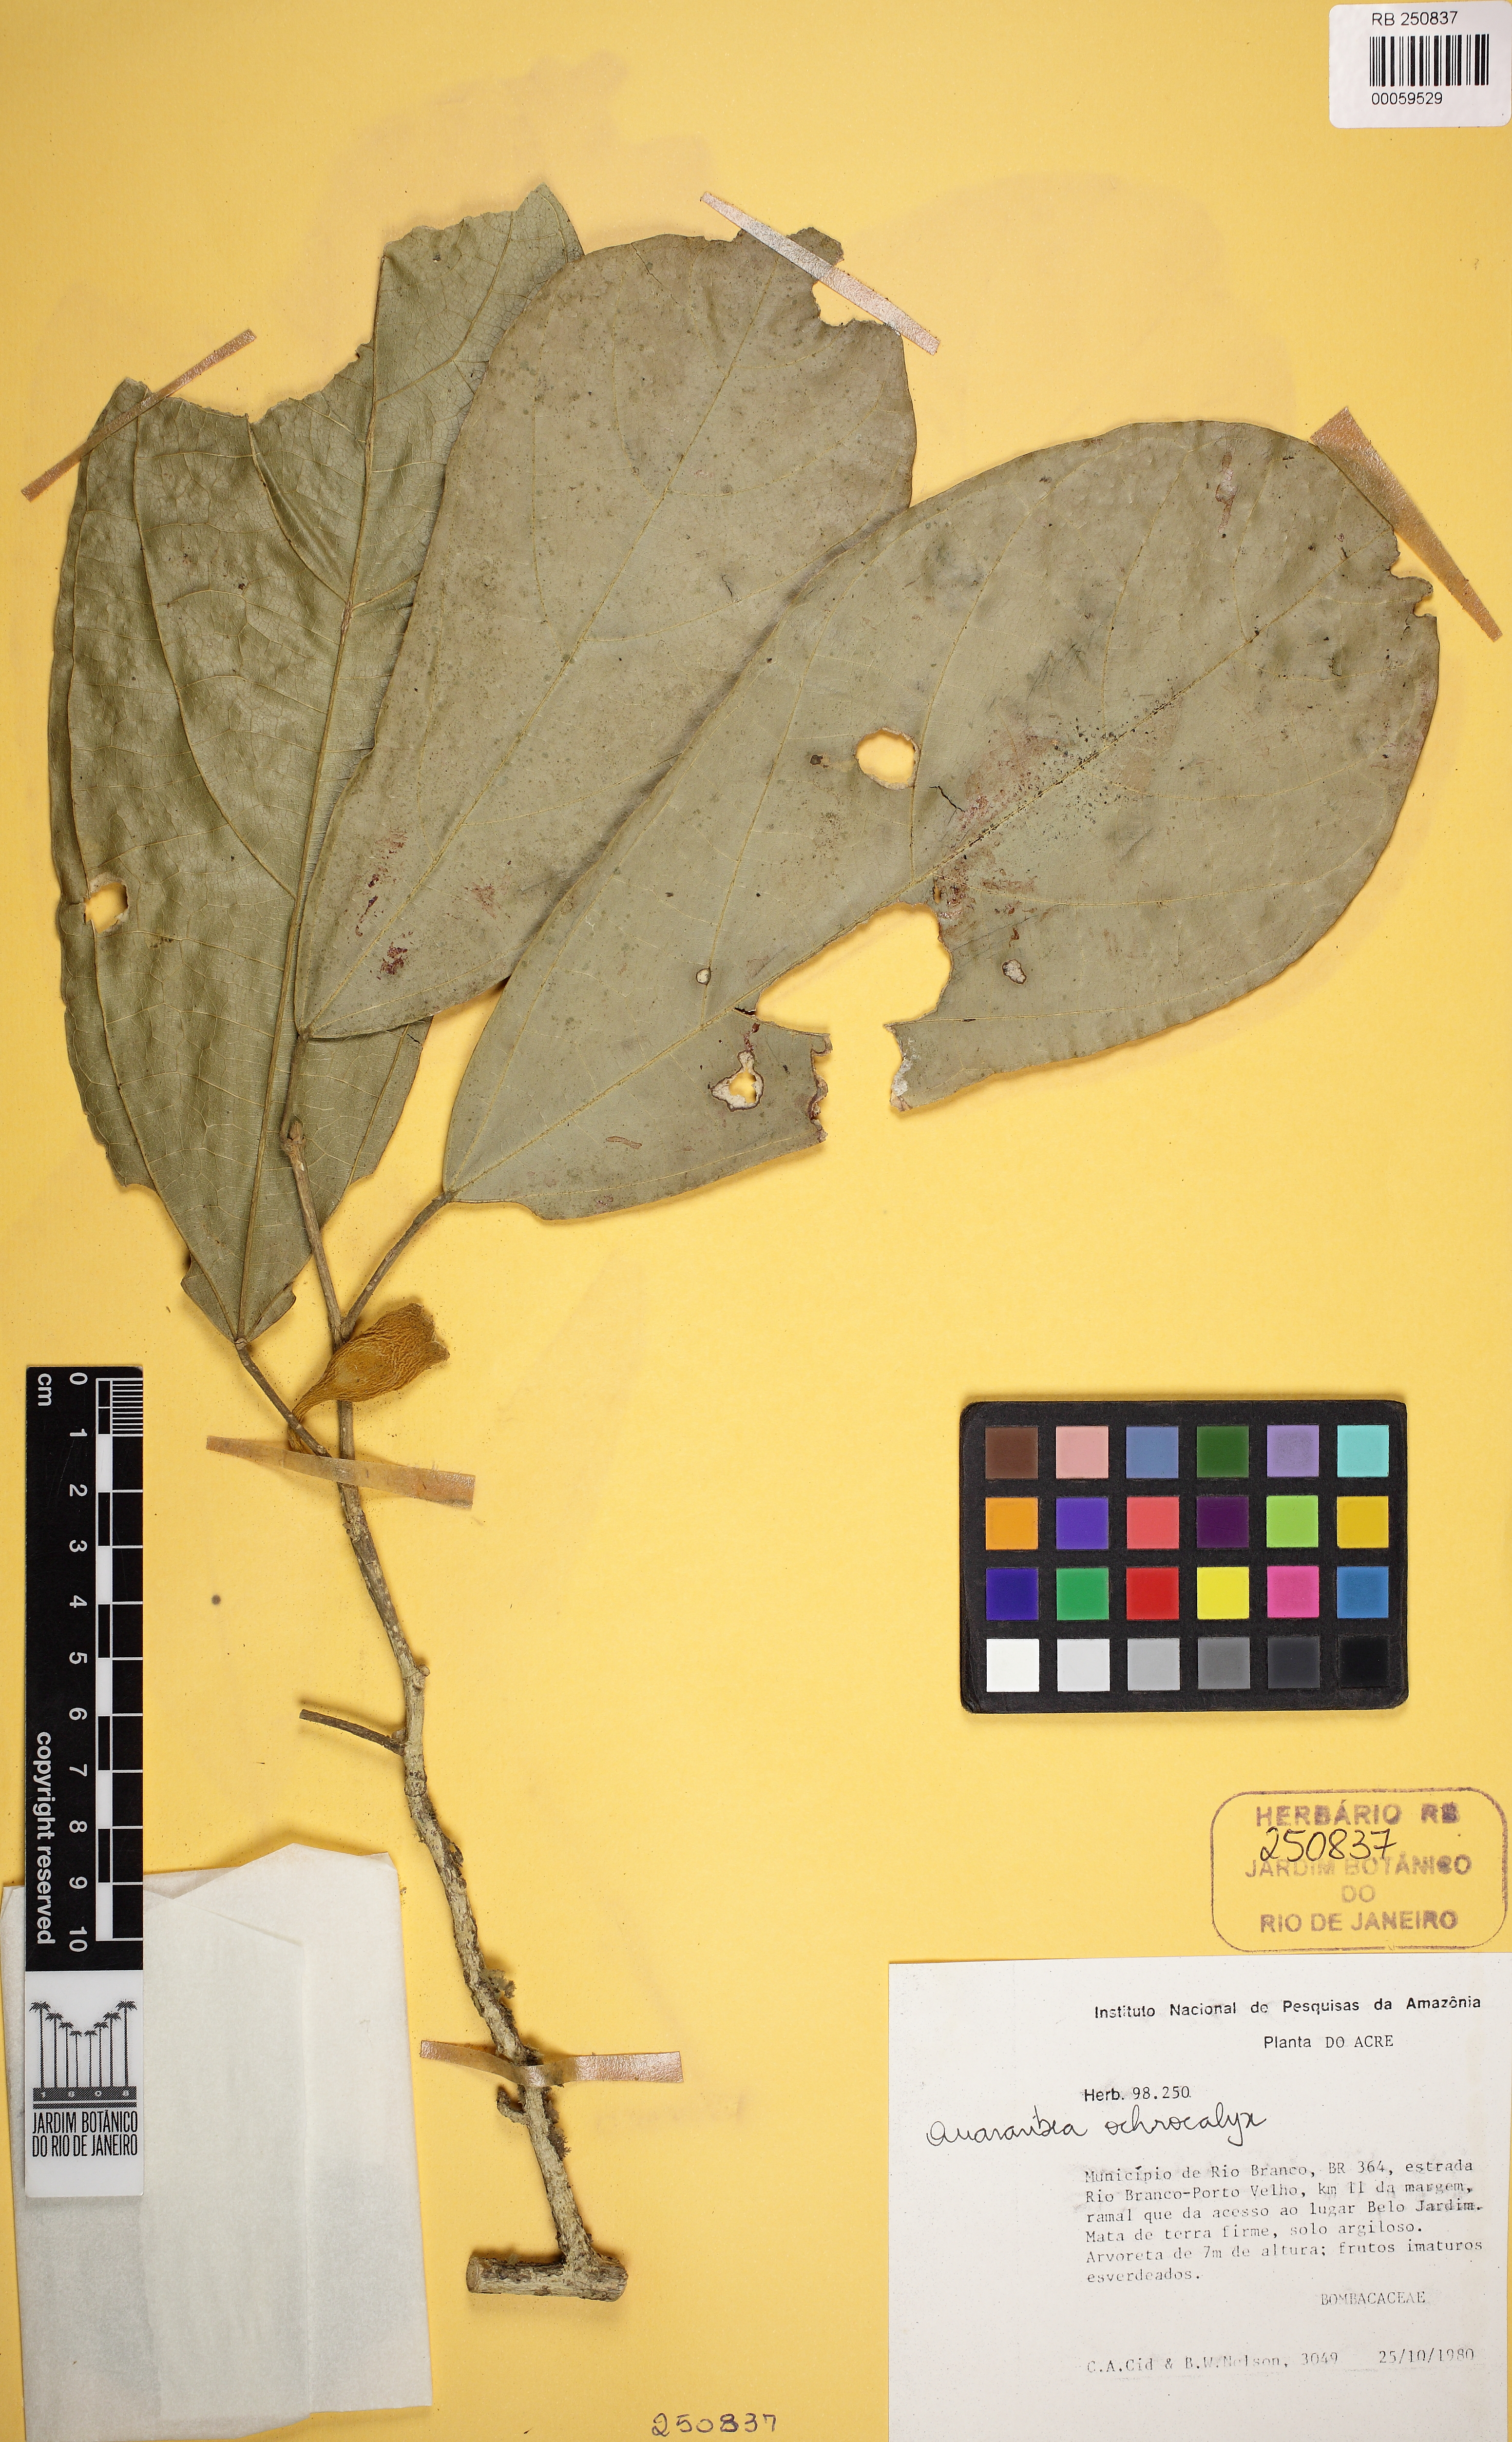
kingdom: Plantae
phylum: Tracheophyta
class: Magnoliopsida
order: Malvales
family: Malvaceae
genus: Matisia
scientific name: Matisia ochrocalyx
